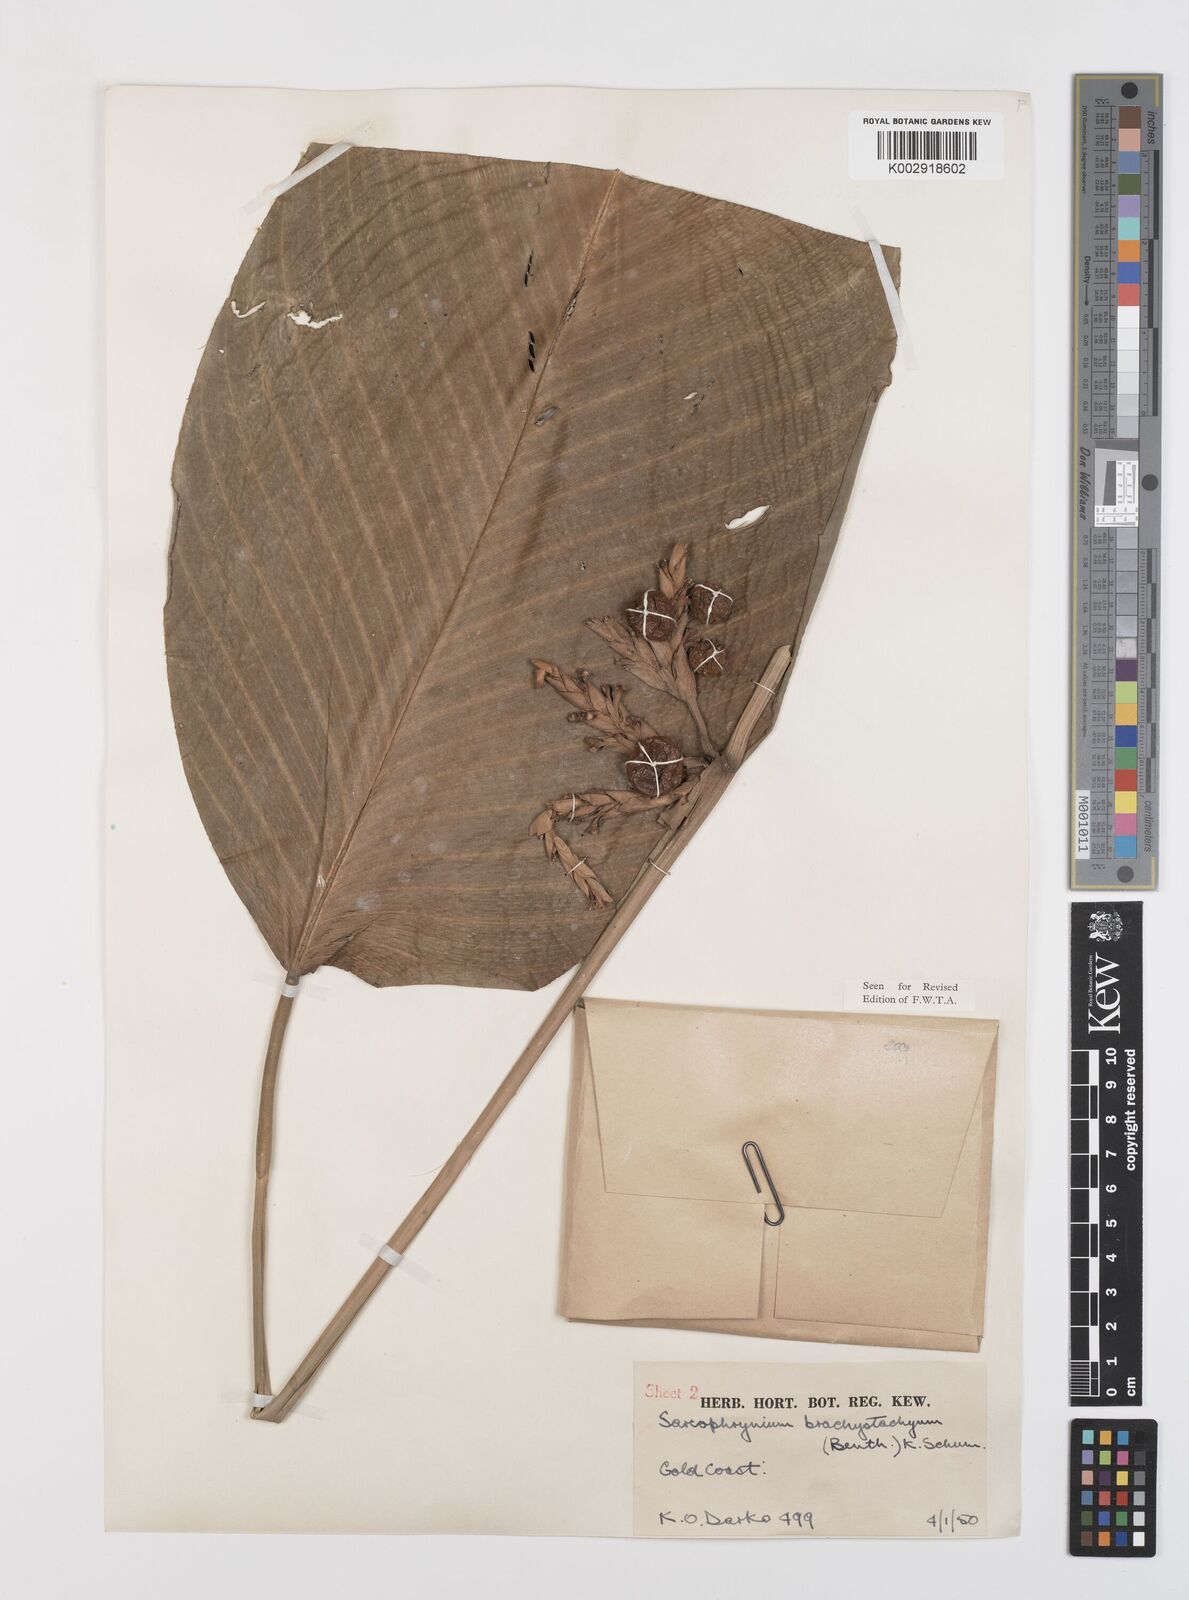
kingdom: Plantae
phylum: Tracheophyta
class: Liliopsida
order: Zingiberales
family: Marantaceae
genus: Sarcophrynium
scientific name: Sarcophrynium brachystachyum
